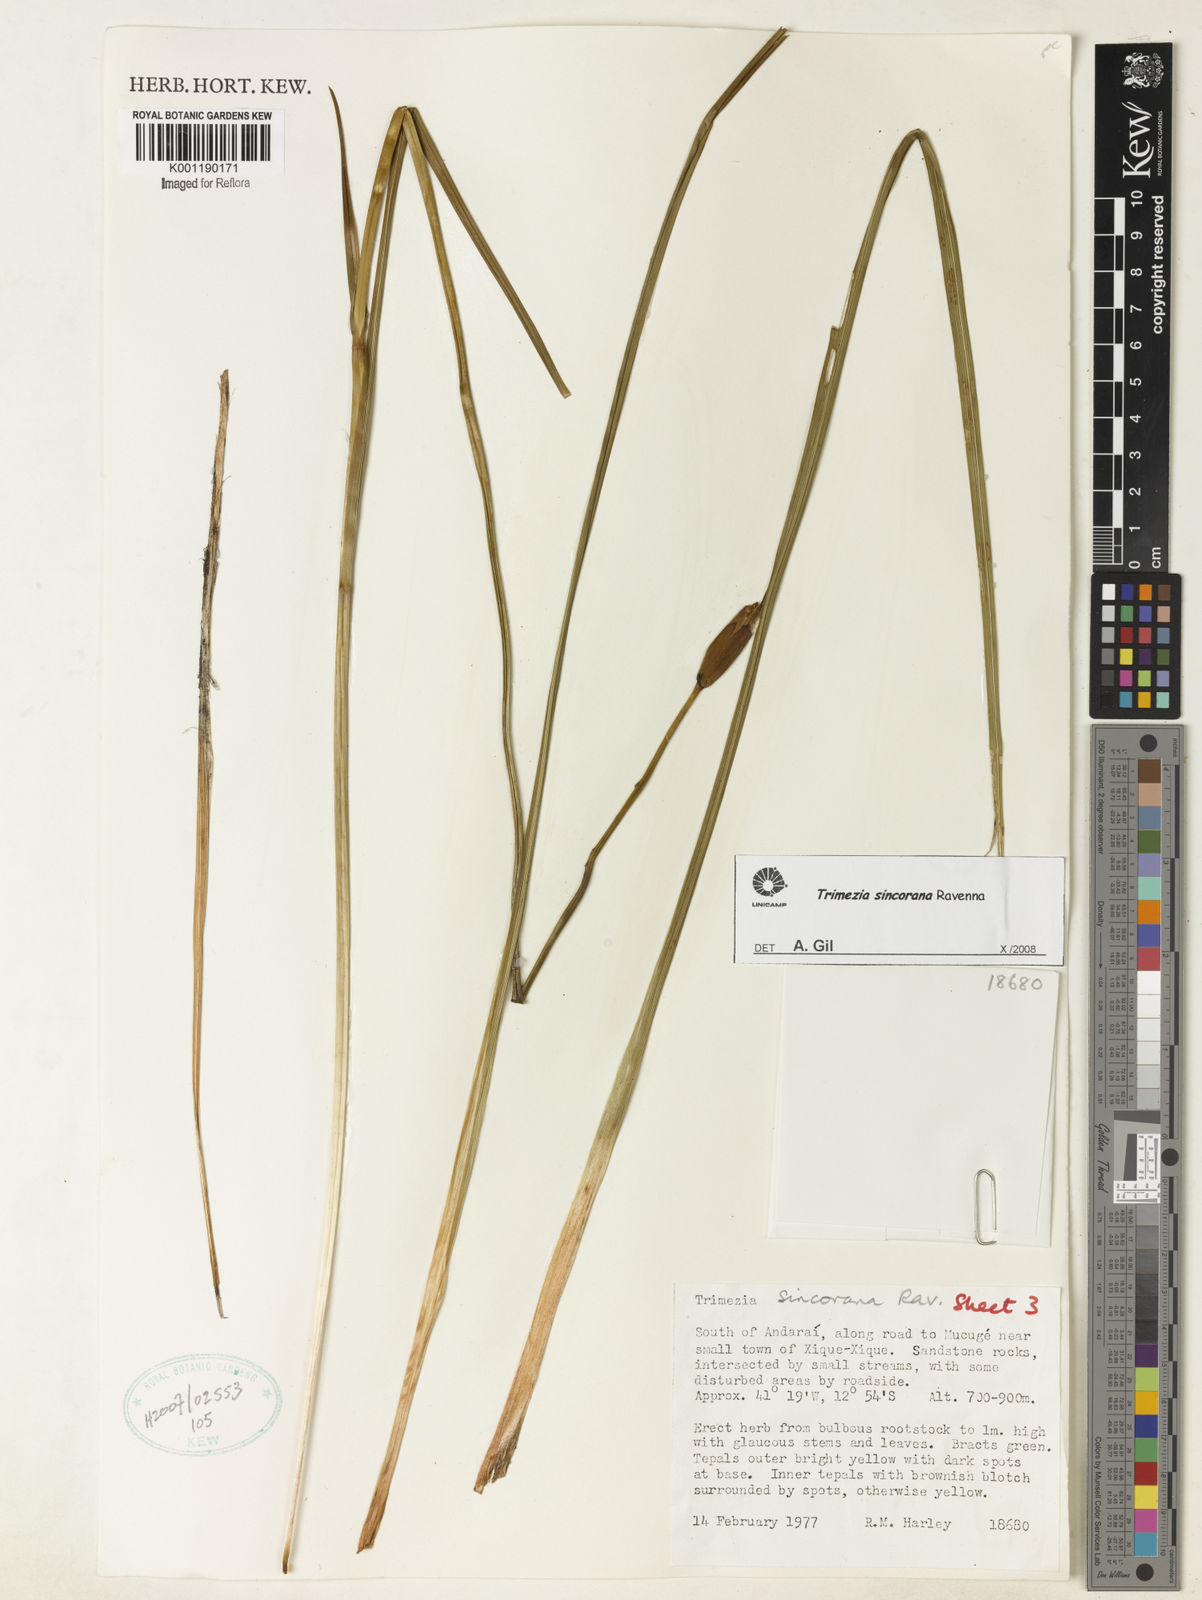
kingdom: Plantae
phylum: Tracheophyta
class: Liliopsida
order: Asparagales
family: Iridaceae
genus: Trimezia
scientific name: Trimezia spathata
